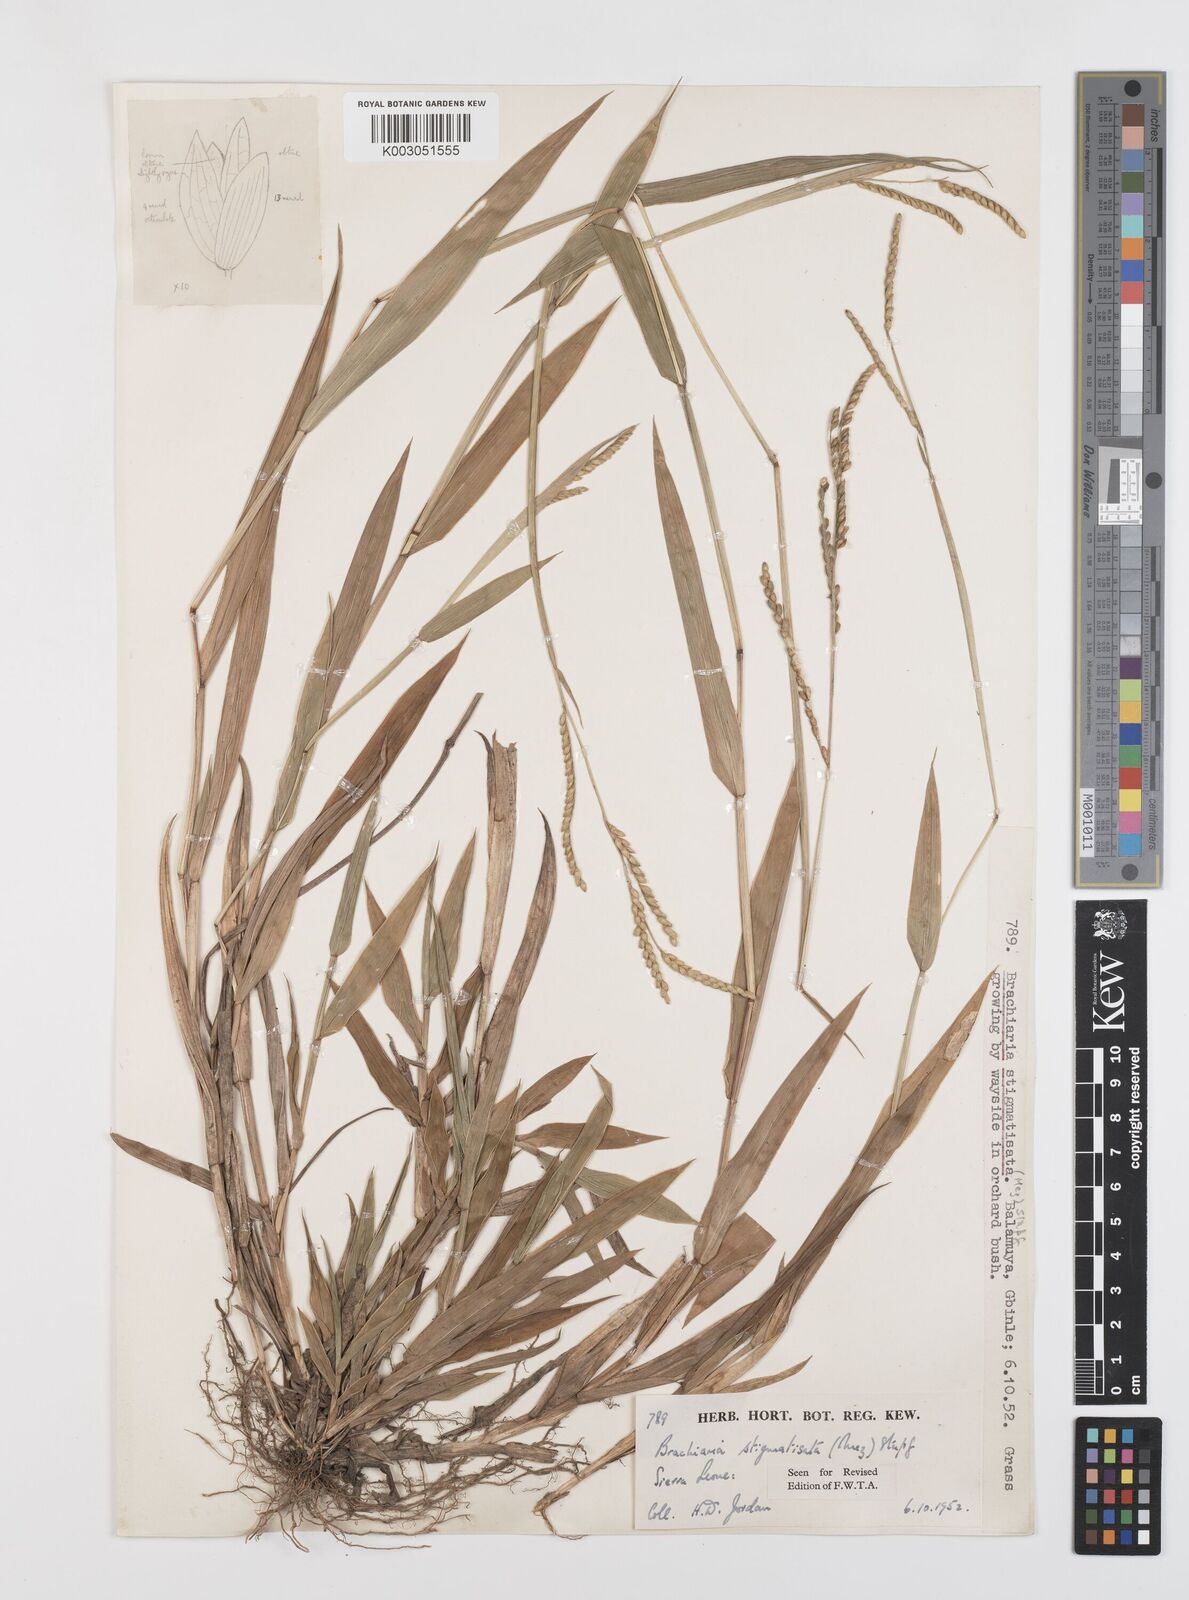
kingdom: Plantae
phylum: Tracheophyta
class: Liliopsida
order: Poales
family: Poaceae
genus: Urochloa
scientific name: Urochloa stigmatisata
